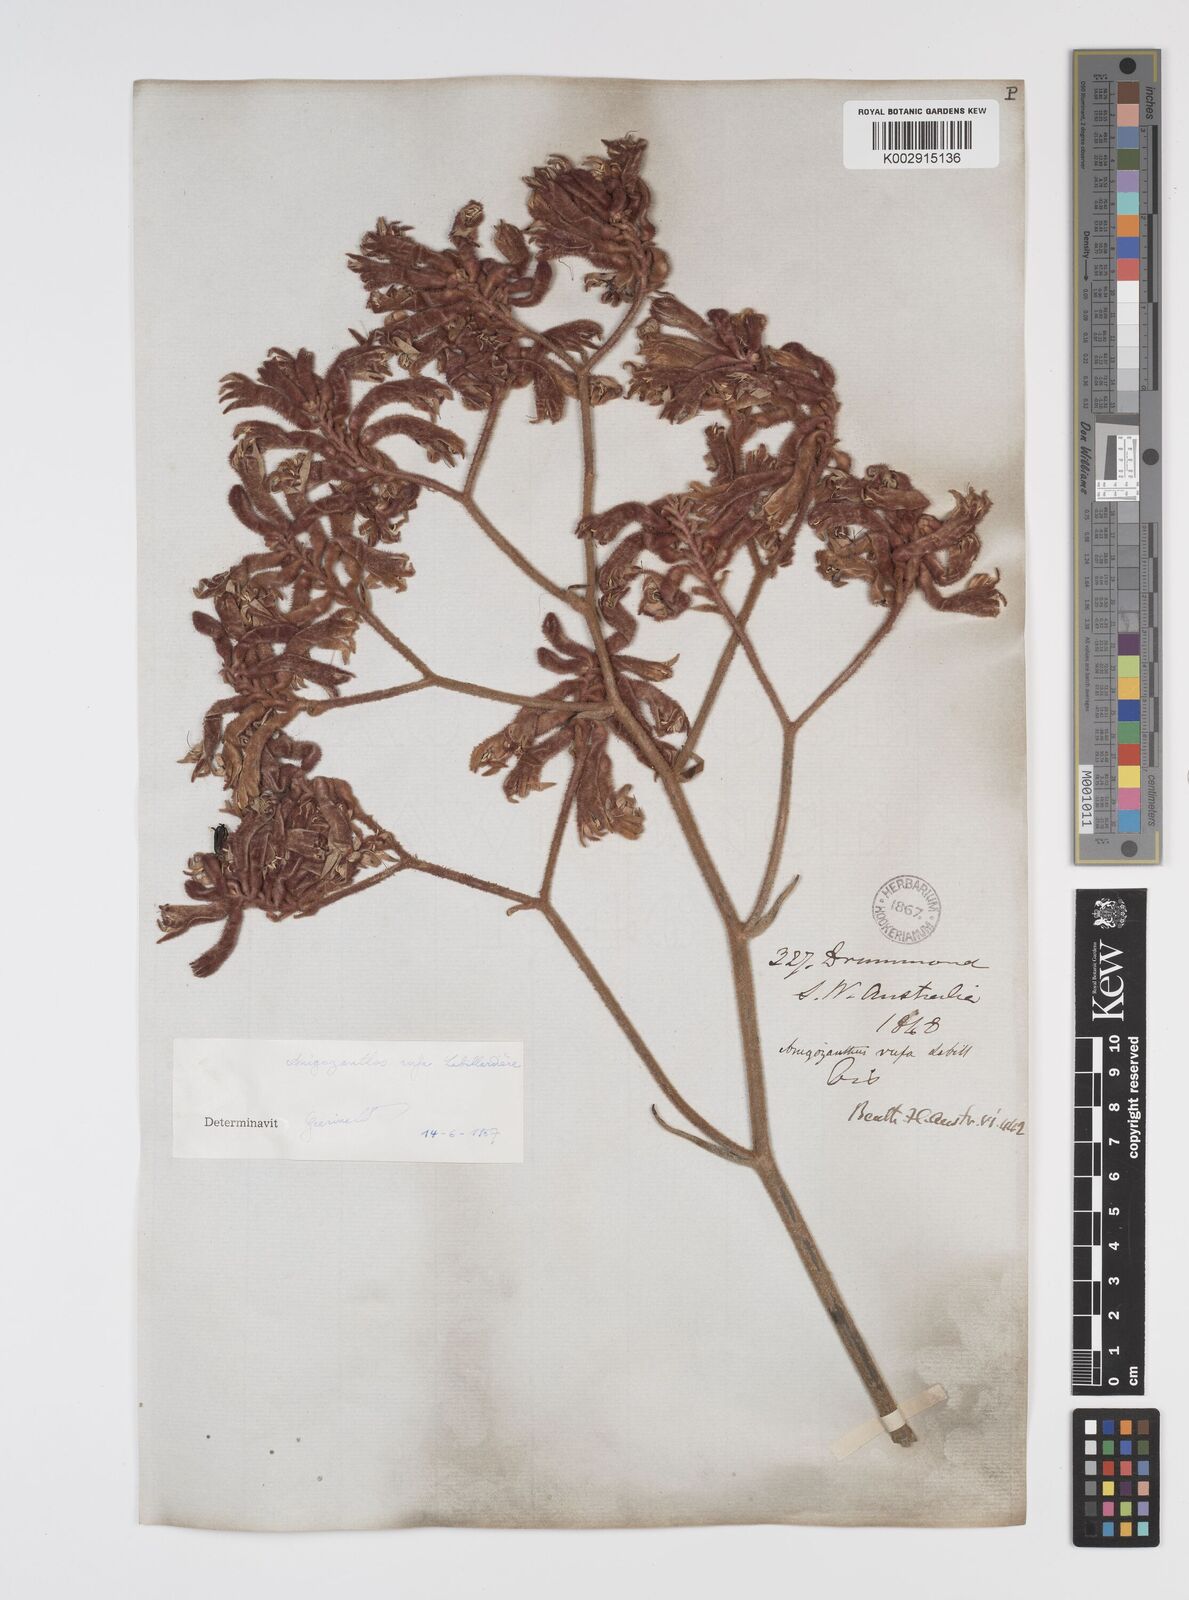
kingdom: Plantae
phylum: Tracheophyta
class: Liliopsida
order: Commelinales
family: Haemodoraceae
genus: Anigozanthos
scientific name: Anigozanthos rufus
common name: Red kangaroo-paw
